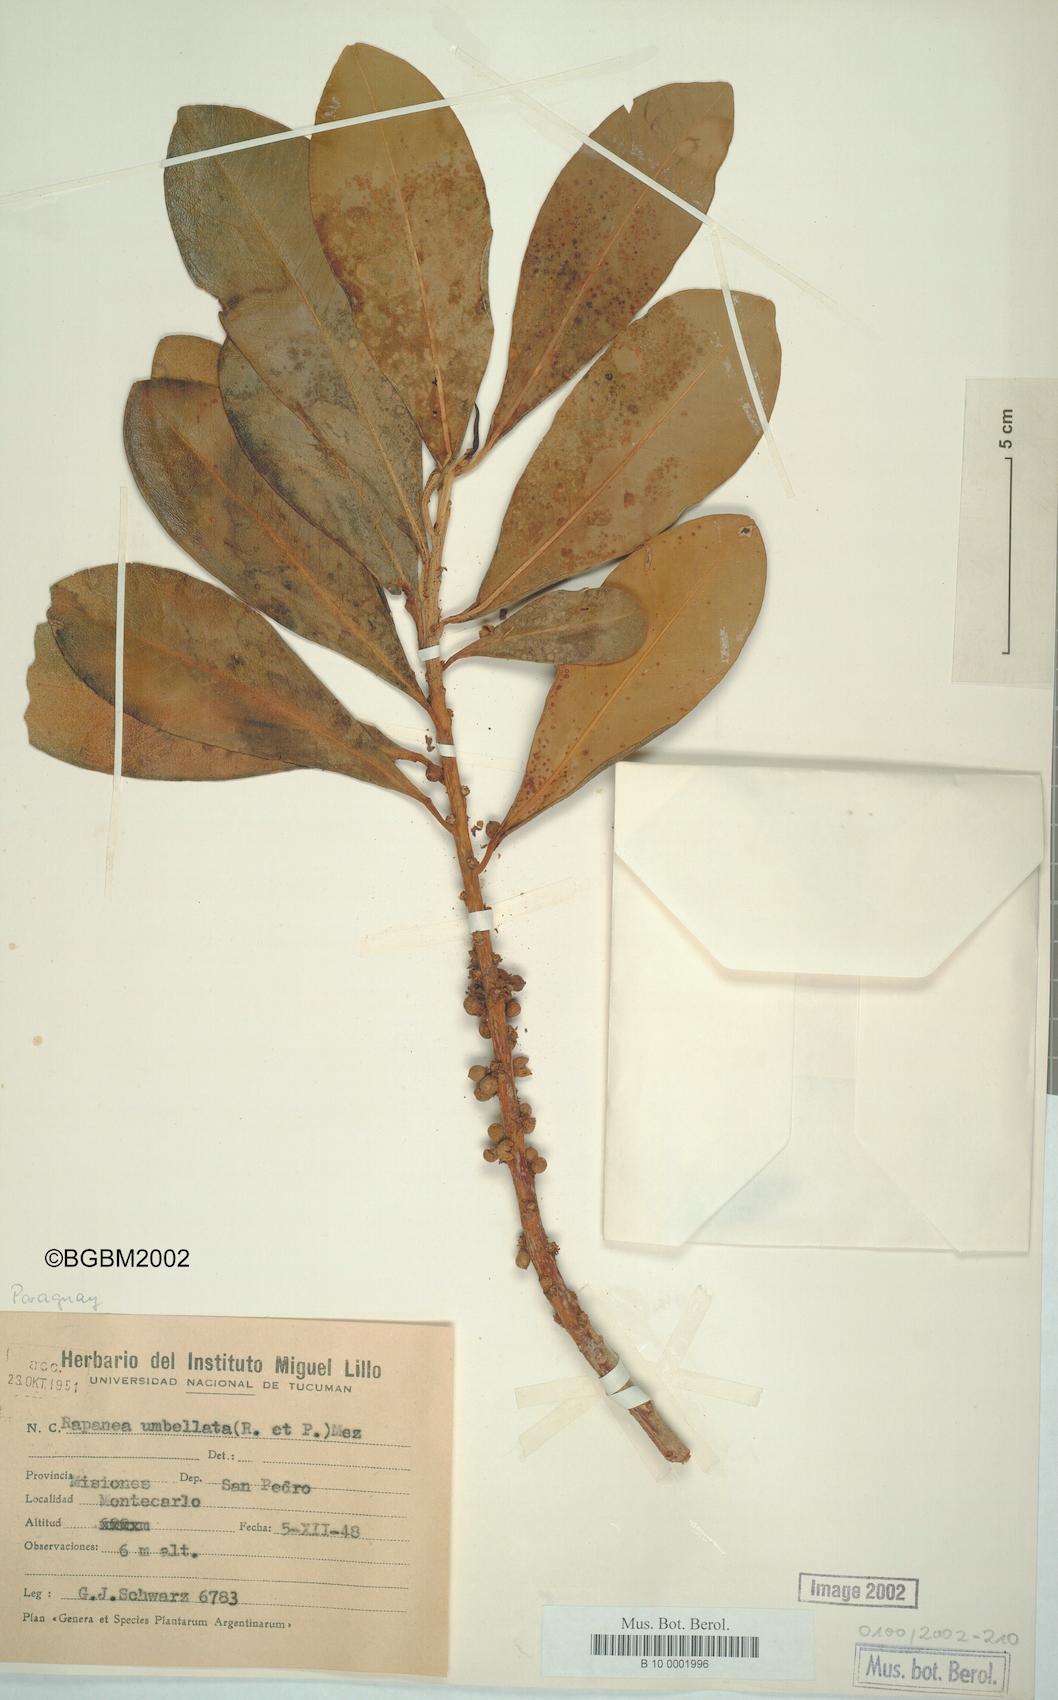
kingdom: Plantae
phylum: Tracheophyta
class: Magnoliopsida
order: Ericales
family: Primulaceae
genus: Myrsine
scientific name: Myrsine umbellata
